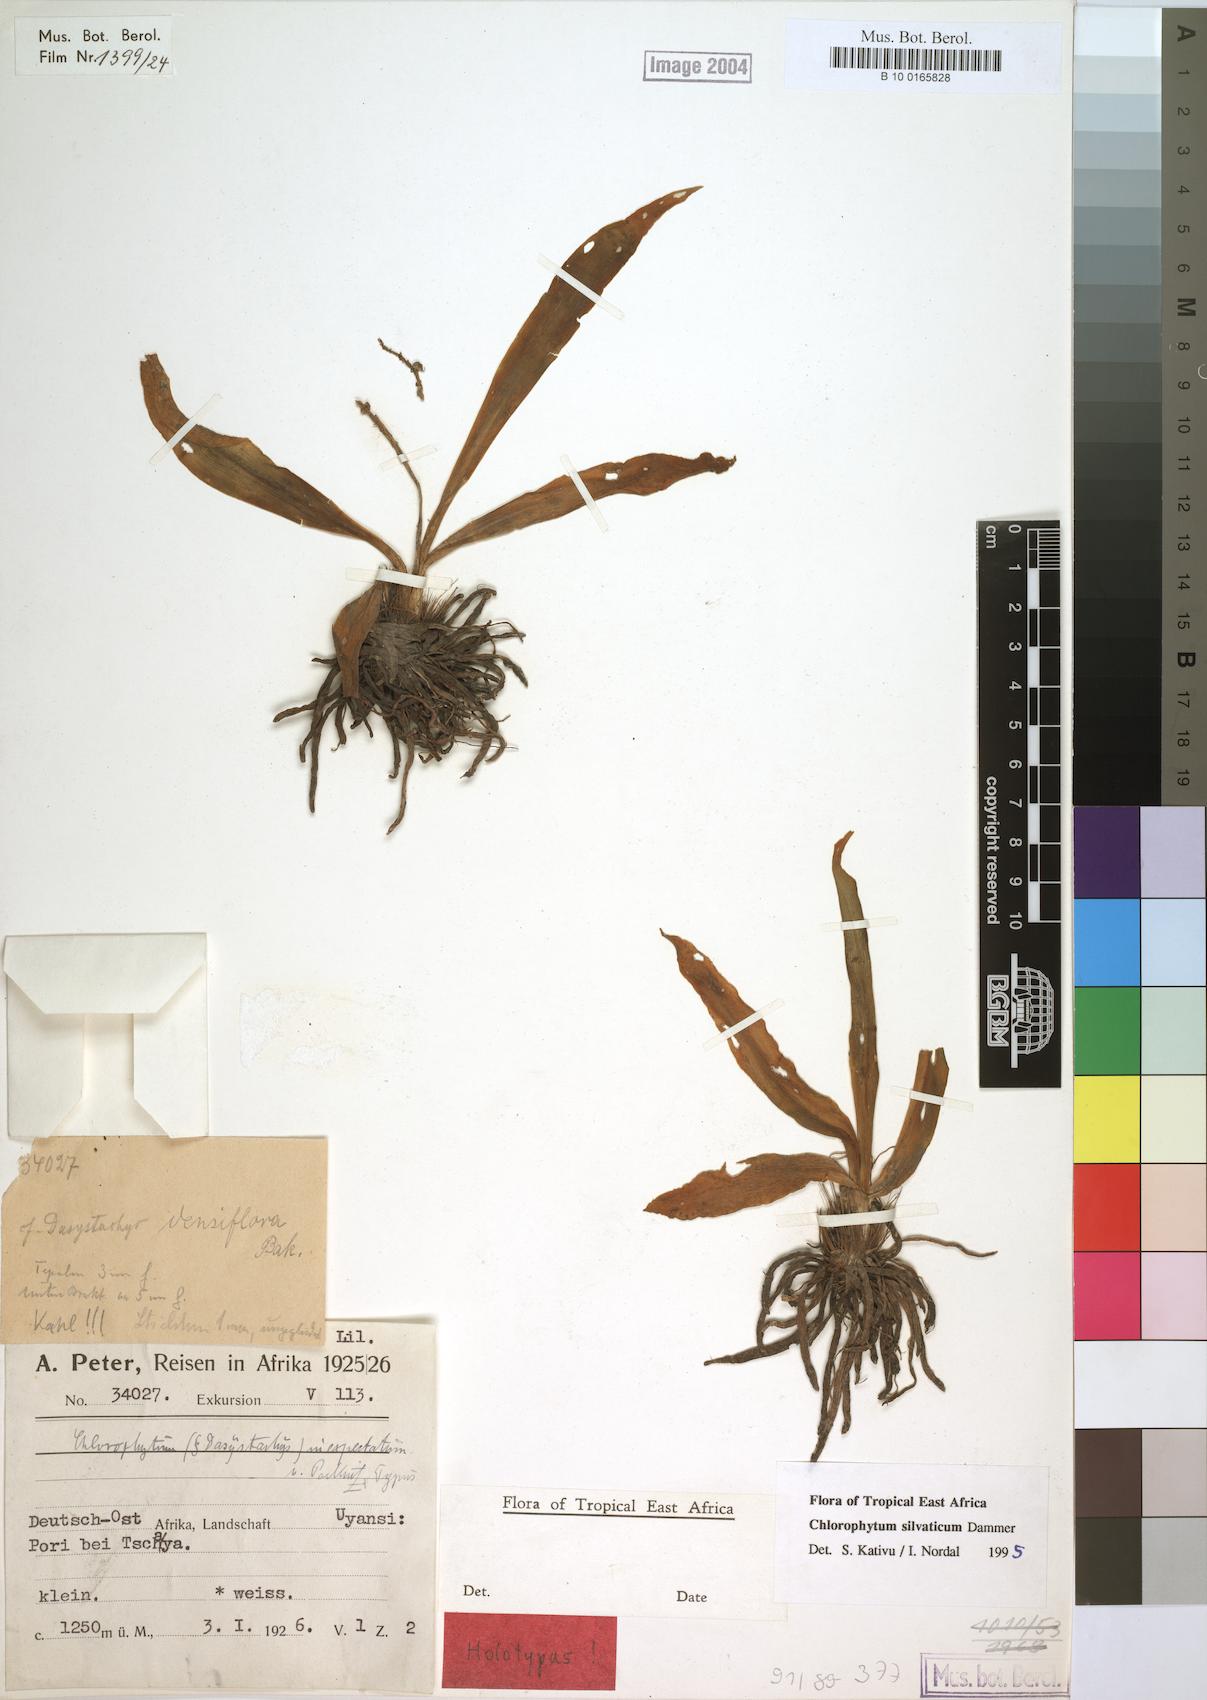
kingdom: Plantae
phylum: Tracheophyta
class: Liliopsida
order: Asparagales
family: Asparagaceae
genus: Chlorophytum
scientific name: Chlorophytum africanum
